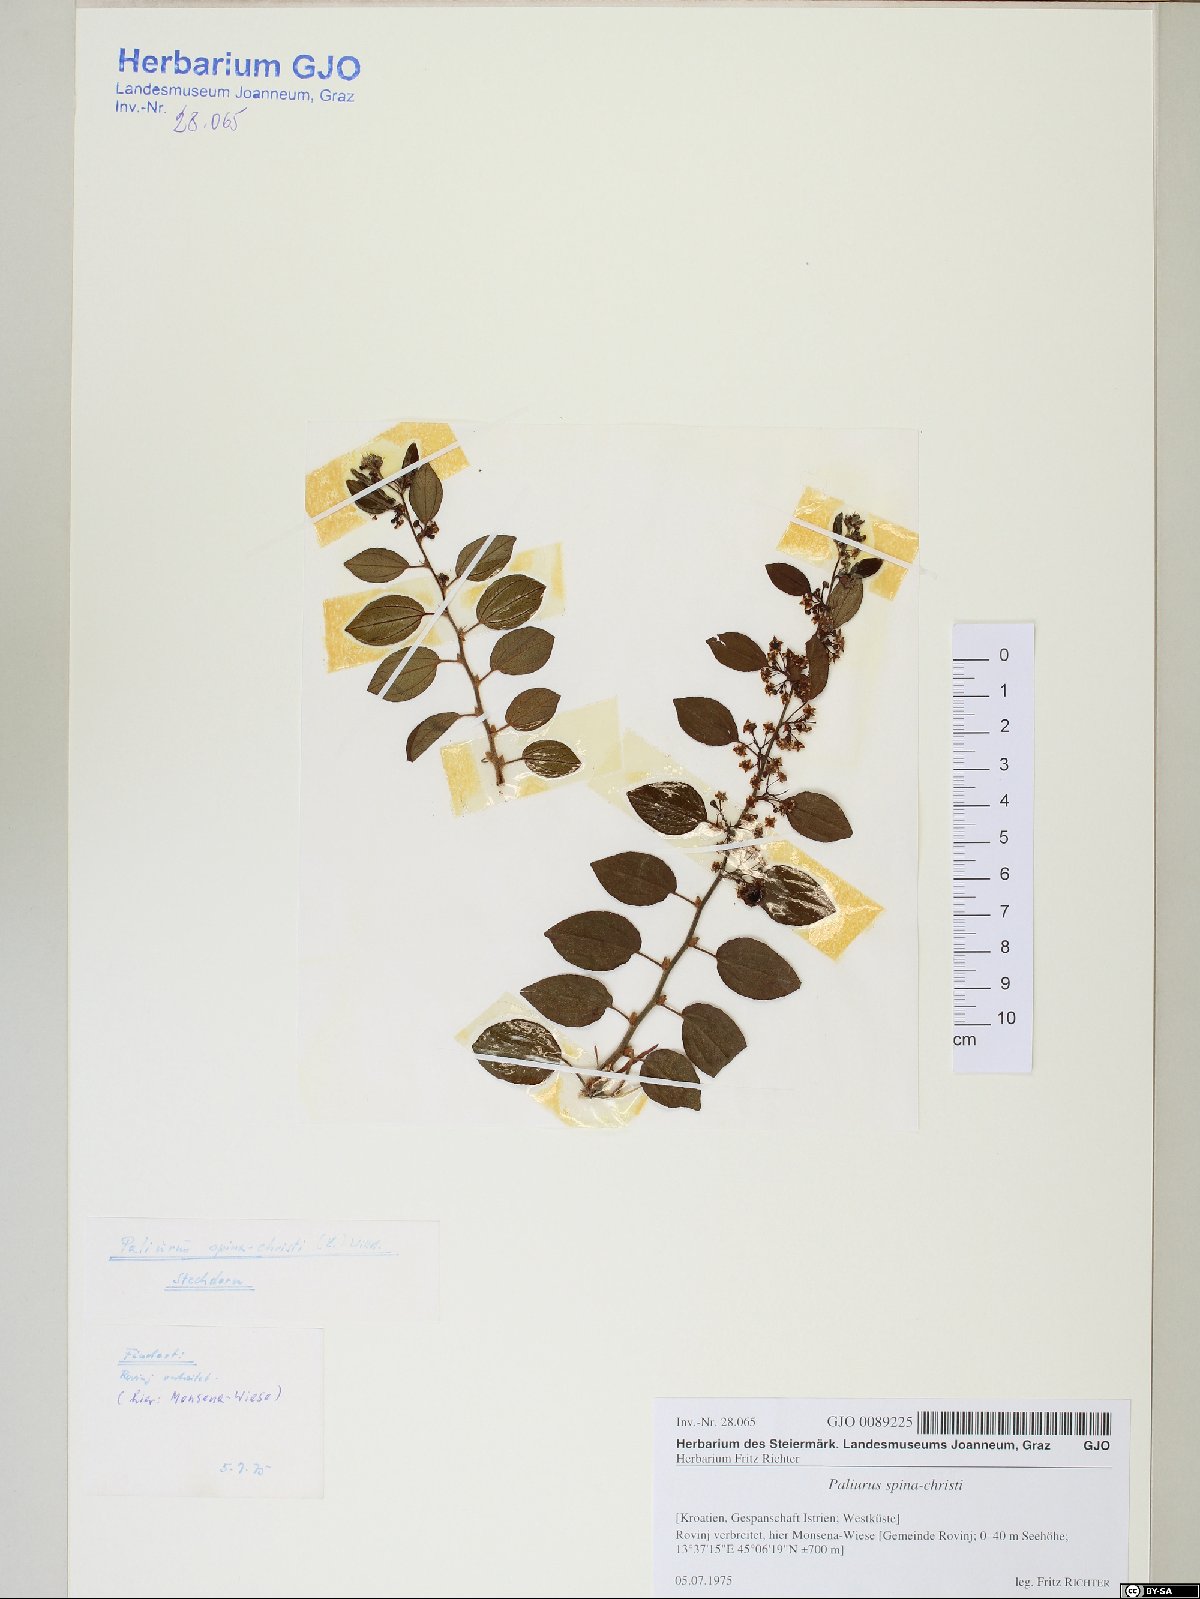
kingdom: Plantae
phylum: Tracheophyta
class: Magnoliopsida
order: Rosales
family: Rhamnaceae
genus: Paliurus
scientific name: Paliurus spina-christi
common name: Jeruselem thorn
